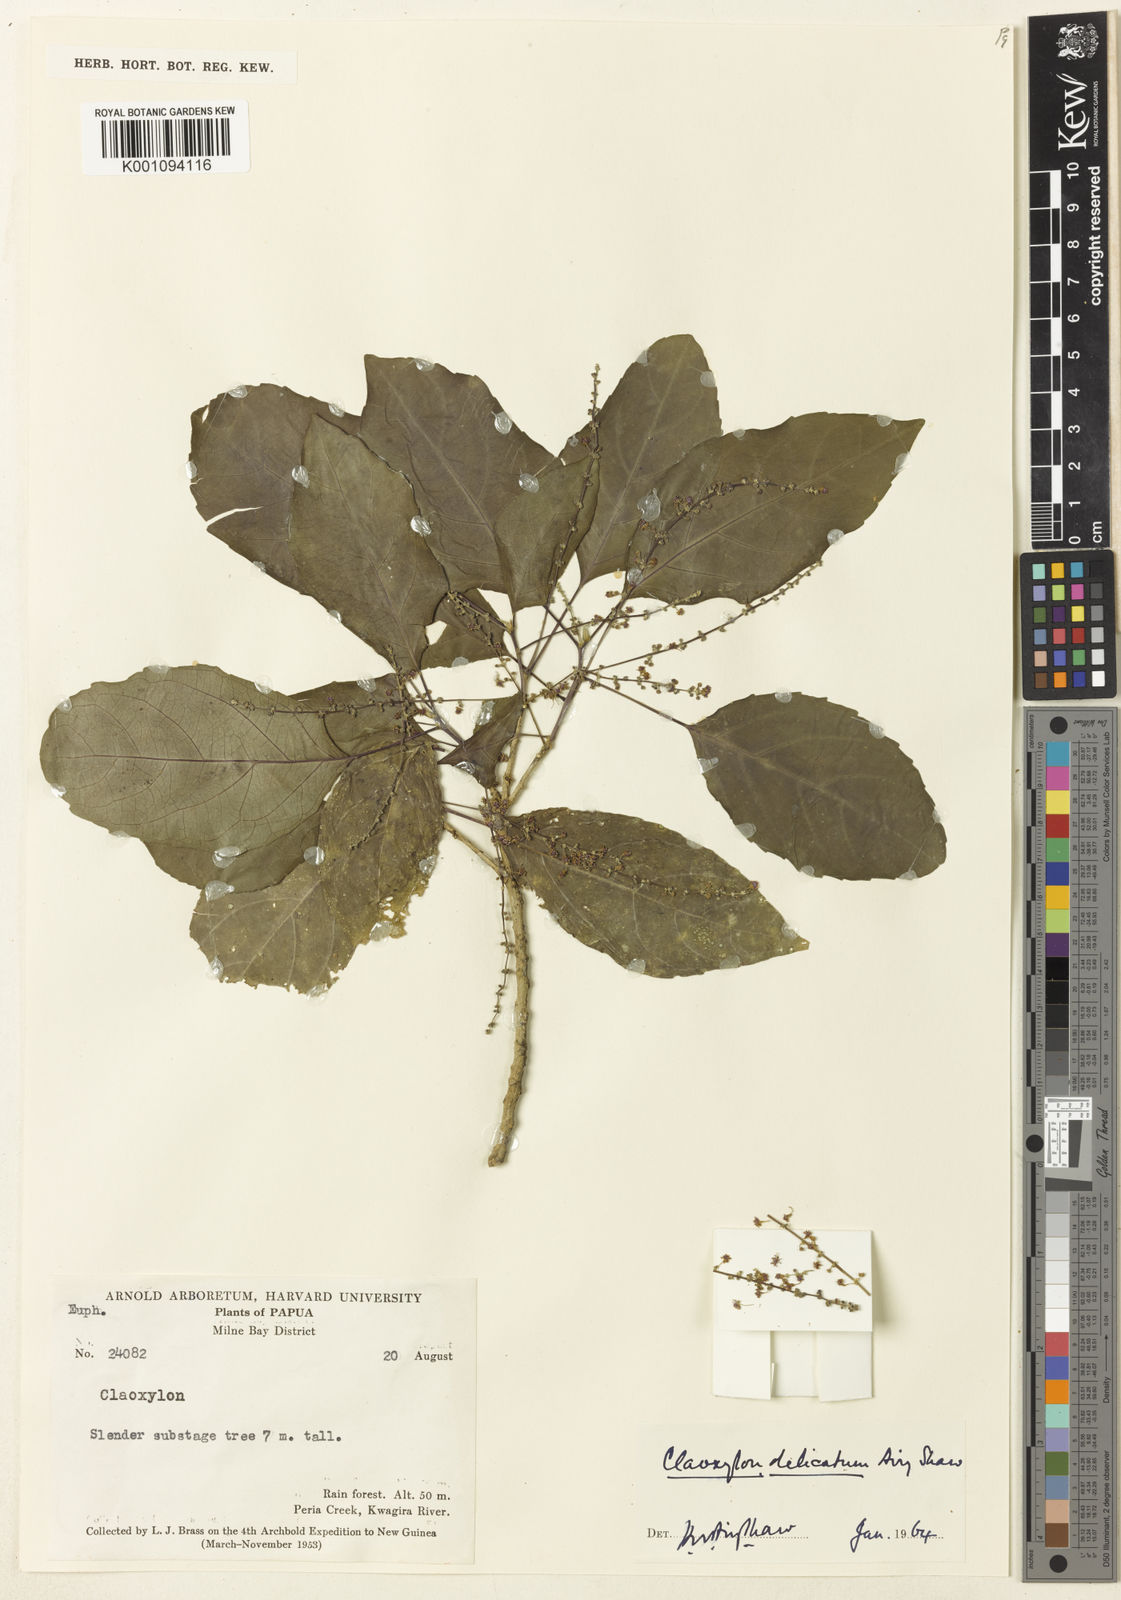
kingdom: Plantae
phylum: Tracheophyta
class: Magnoliopsida
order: Malpighiales
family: Euphorbiaceae
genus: Claoxylon
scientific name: Claoxylon hillii
